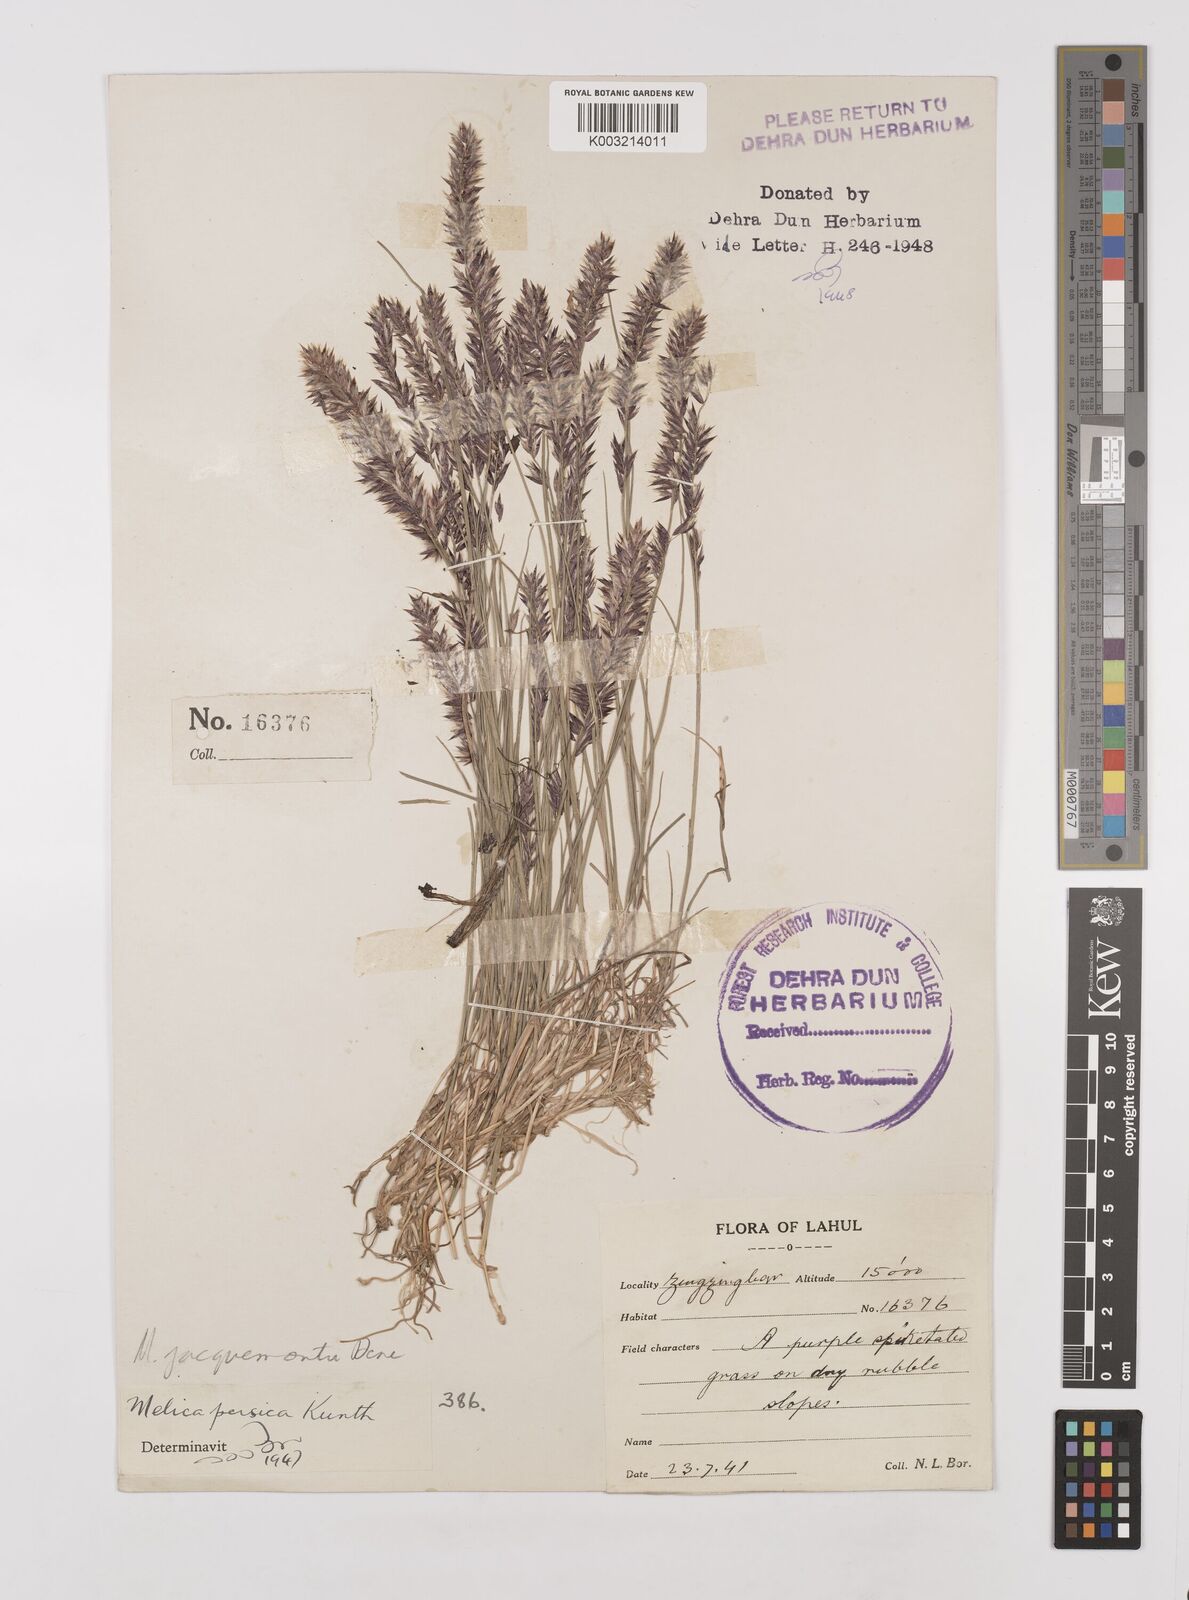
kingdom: Plantae
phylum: Tracheophyta
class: Liliopsida
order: Poales
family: Poaceae
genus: Melica
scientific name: Melica persica
